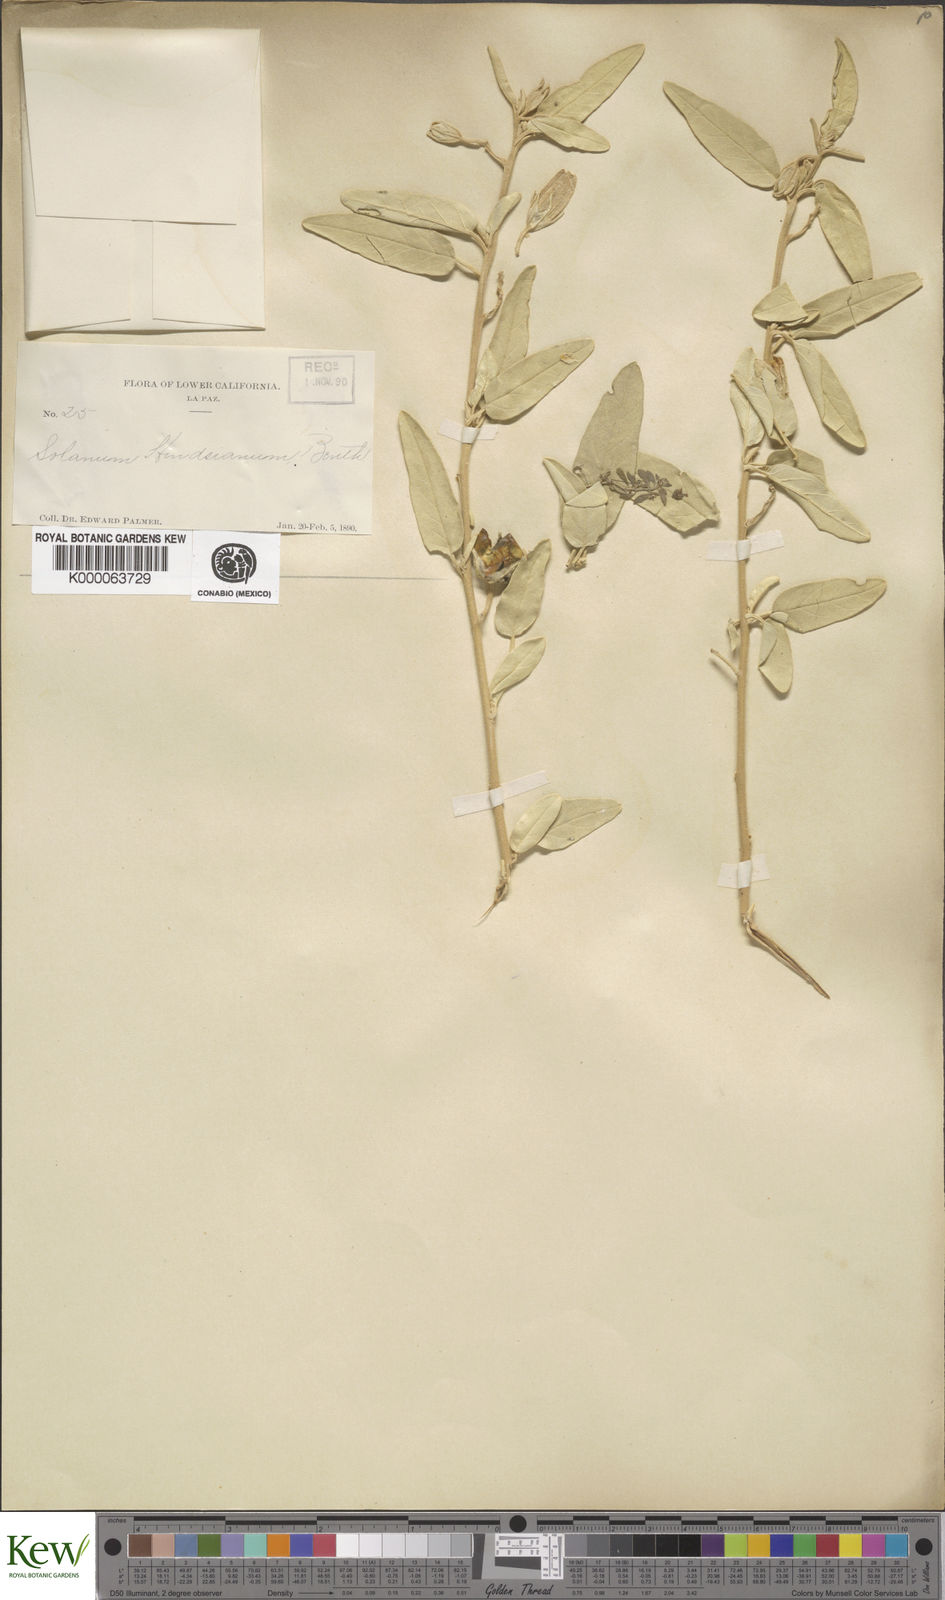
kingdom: Plantae
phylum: Tracheophyta
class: Magnoliopsida
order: Solanales
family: Solanaceae
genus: Solanum
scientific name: Solanum hindsianum
